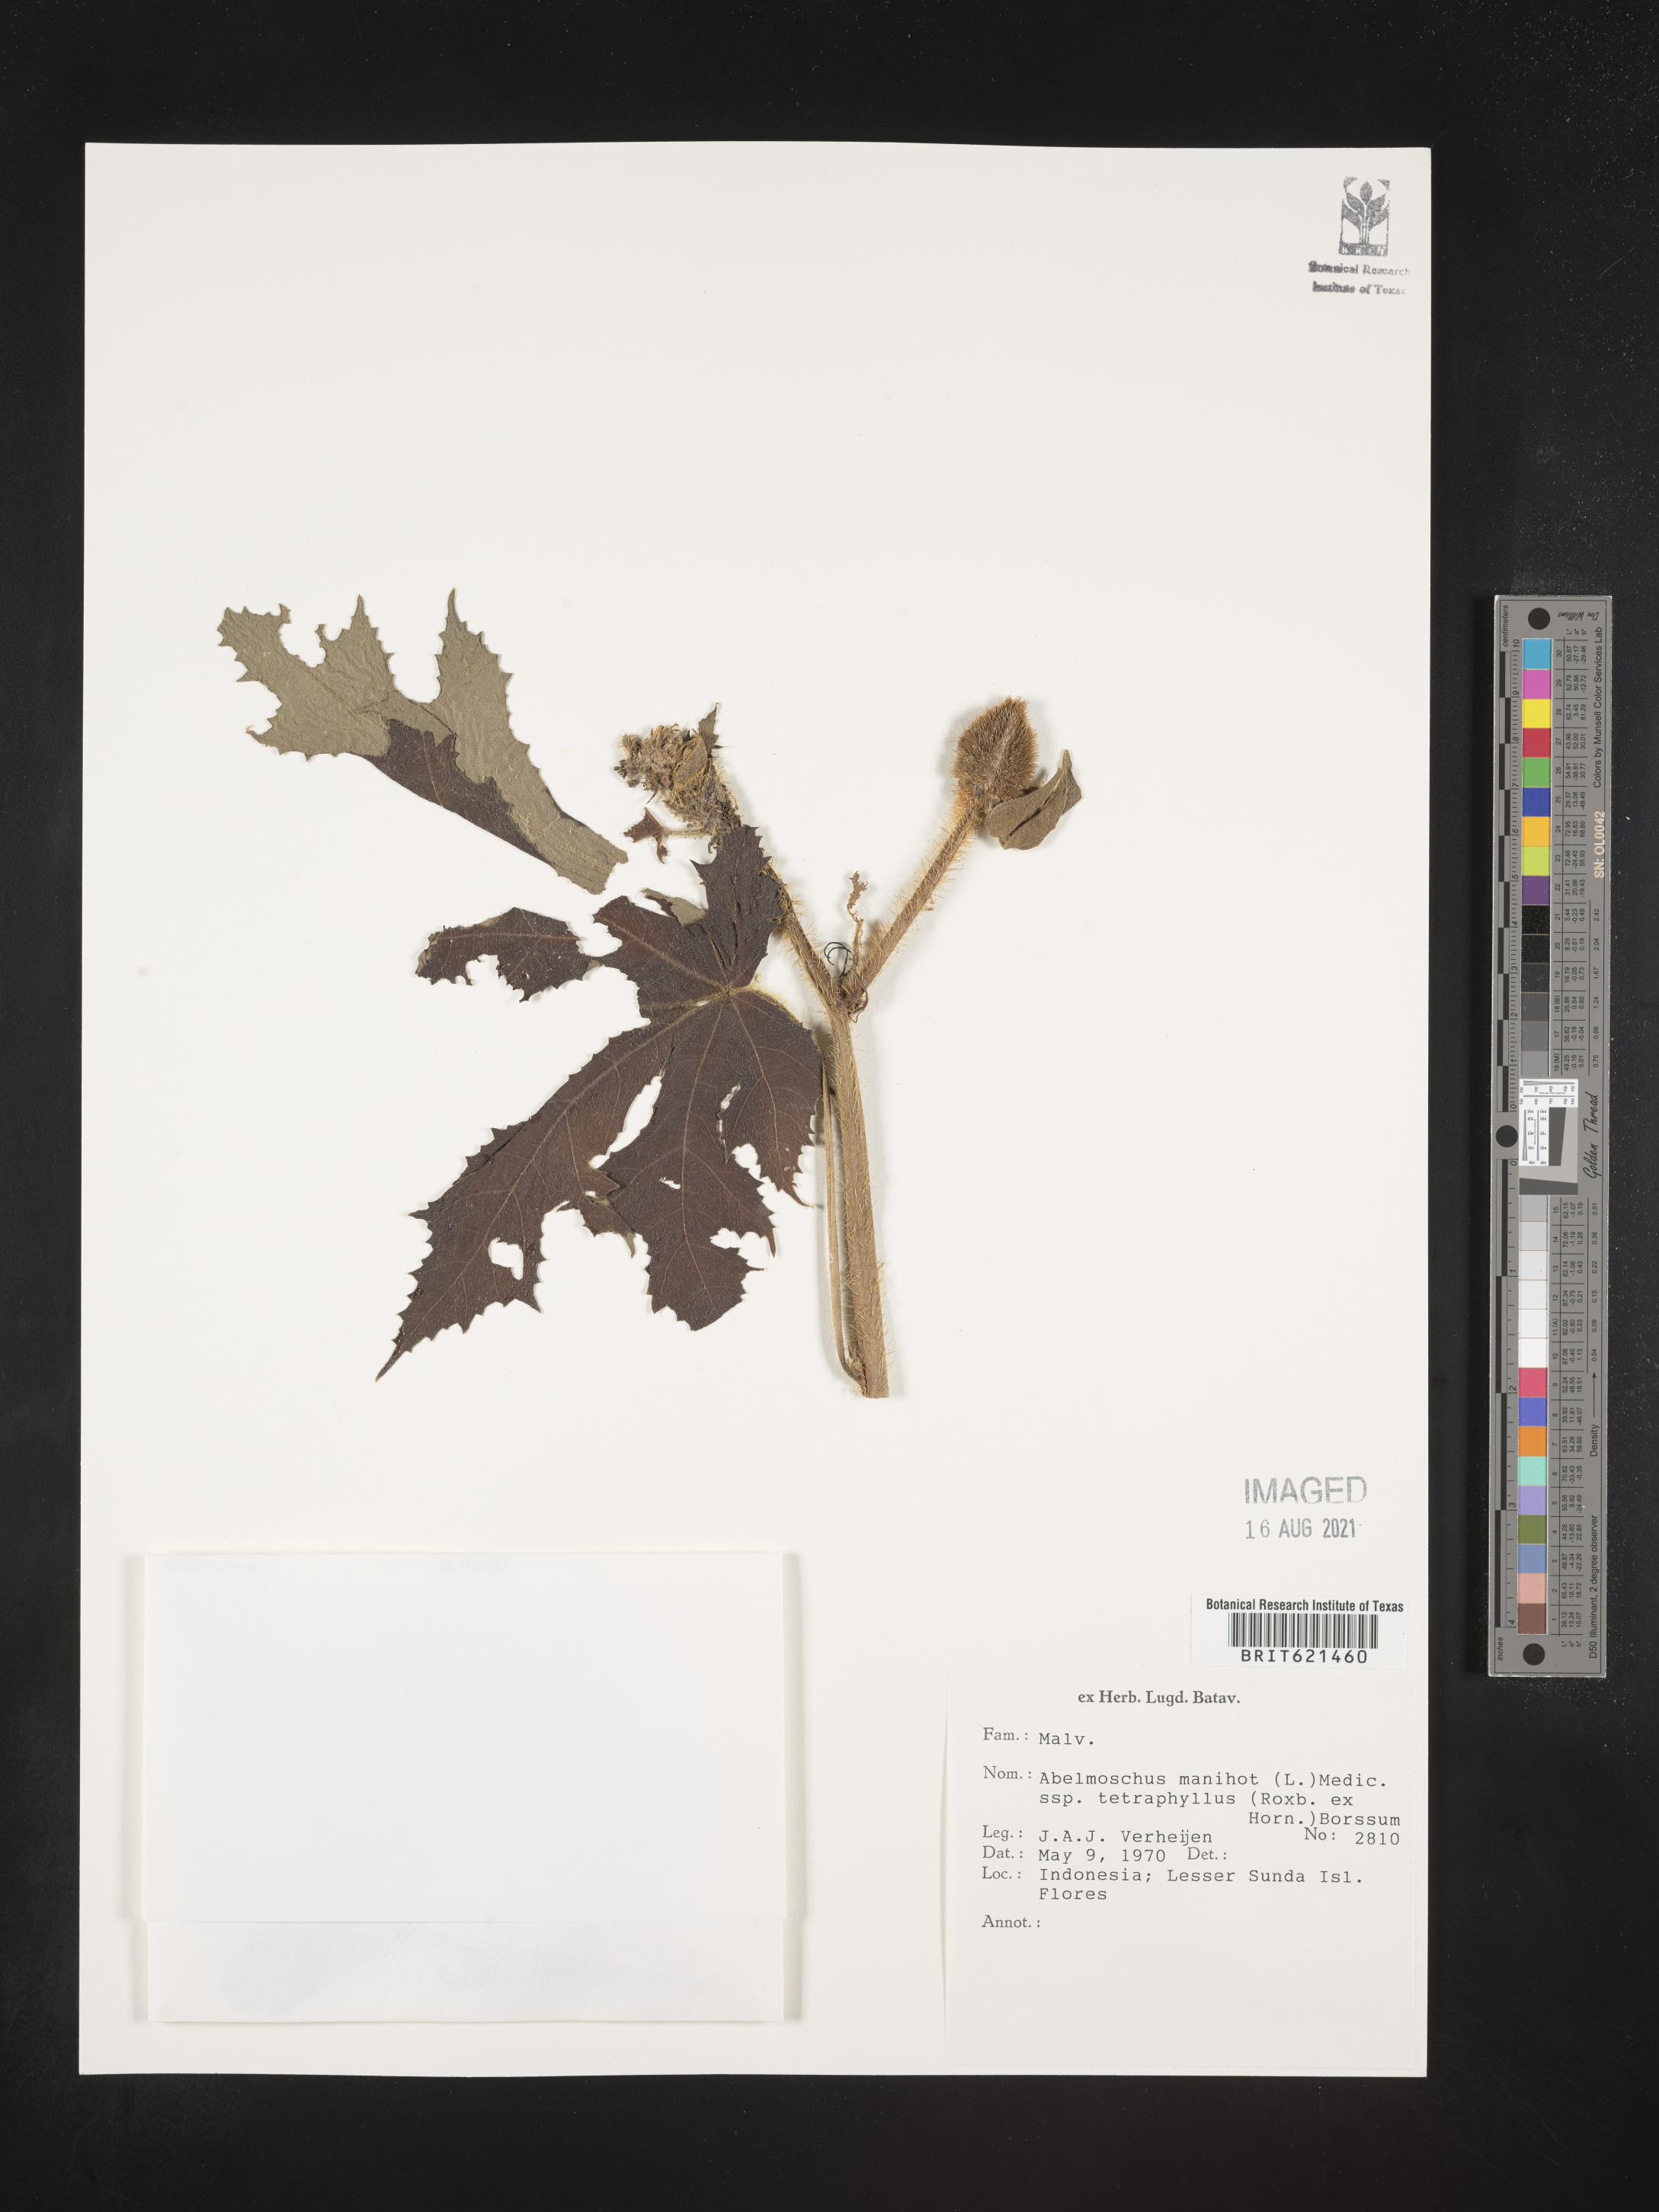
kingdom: Plantae
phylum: Tracheophyta
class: Magnoliopsida
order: Malvales
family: Malvaceae
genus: Abelmoschus
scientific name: Abelmoschus manihot
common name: Sunset muskmallow
